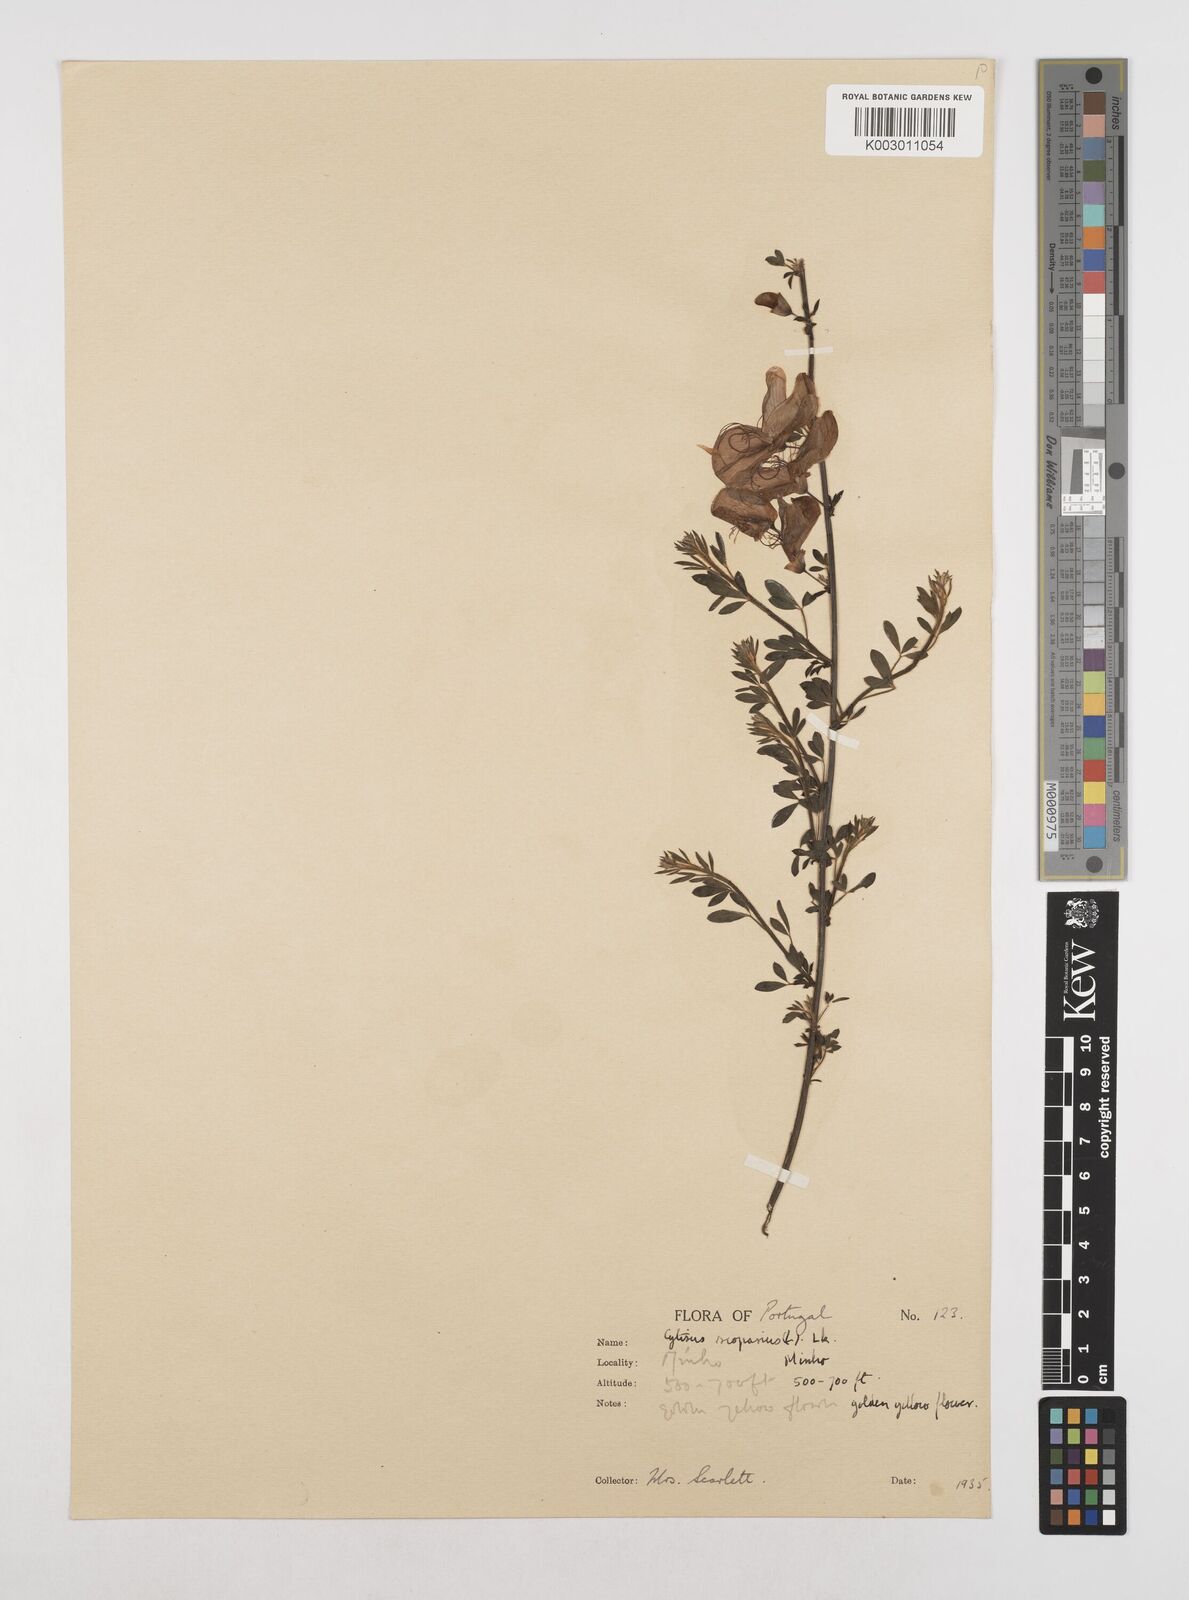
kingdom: Plantae
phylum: Tracheophyta
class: Magnoliopsida
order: Fabales
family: Fabaceae
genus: Cytisus
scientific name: Cytisus scoparius
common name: Scotch broom
